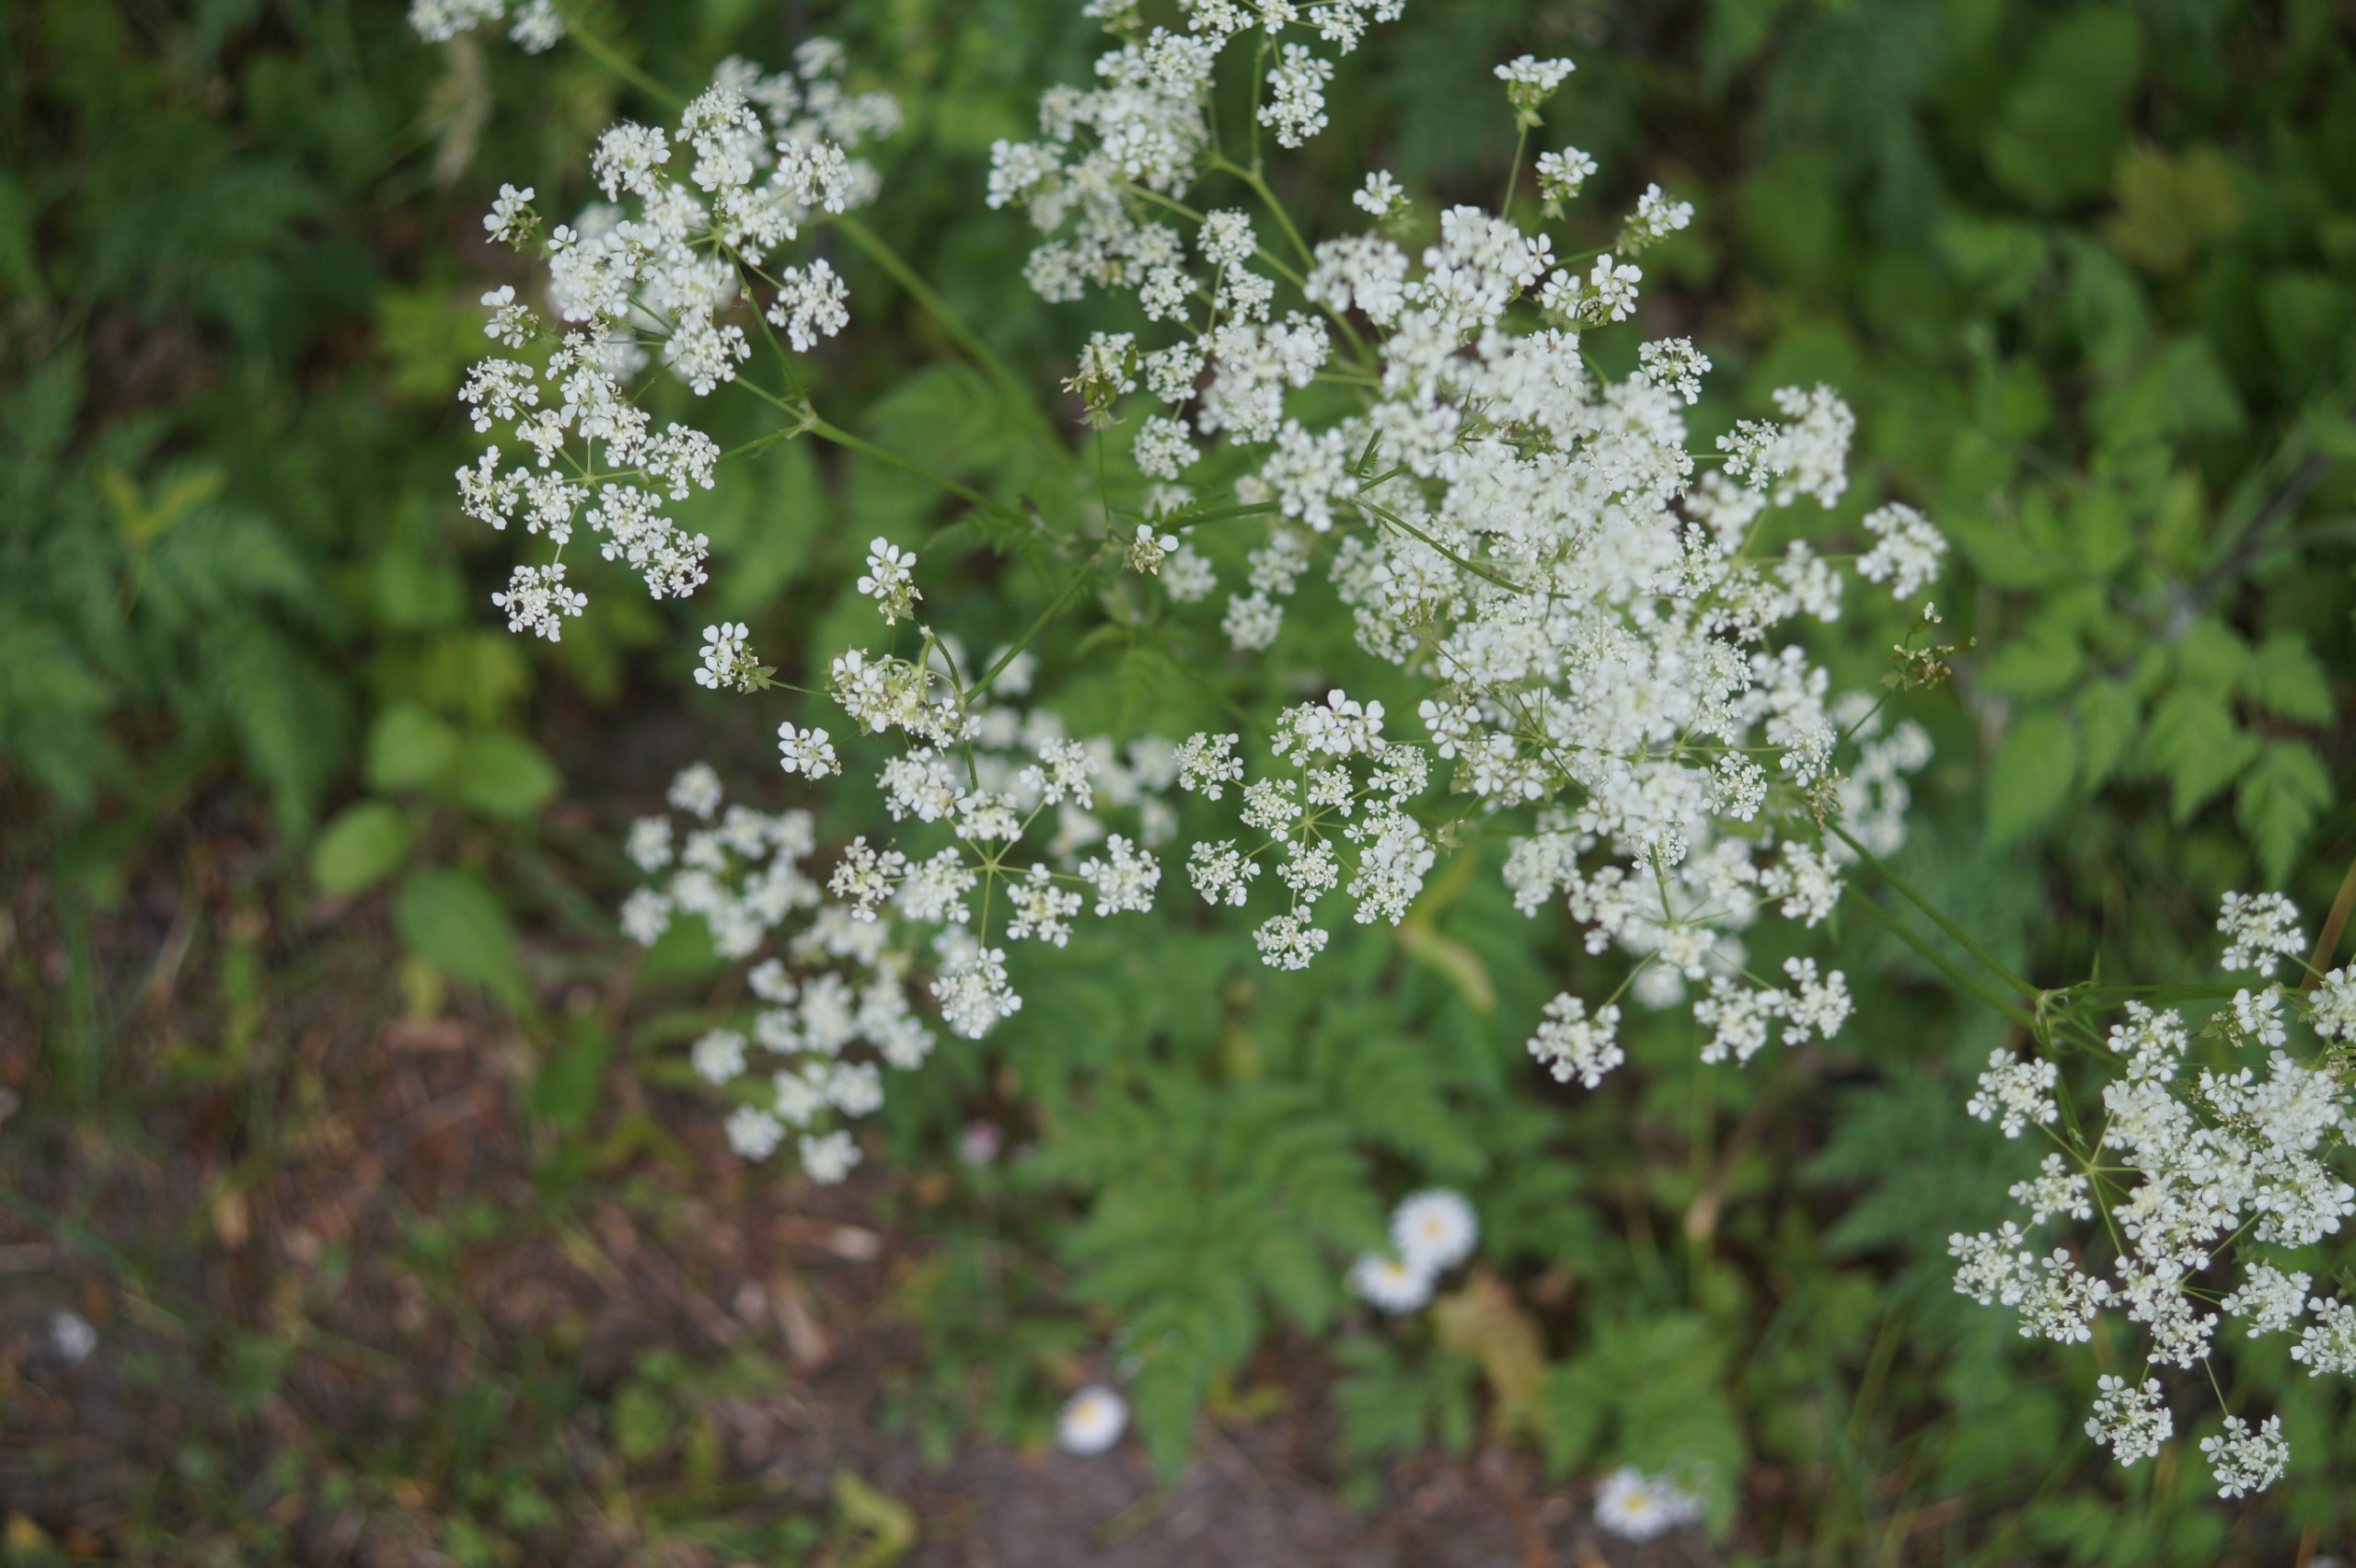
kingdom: Plantae
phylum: Tracheophyta
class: Magnoliopsida
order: Apiales
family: Apiaceae
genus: Anthriscus
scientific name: Anthriscus sylvestris
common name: Vild kørvel
